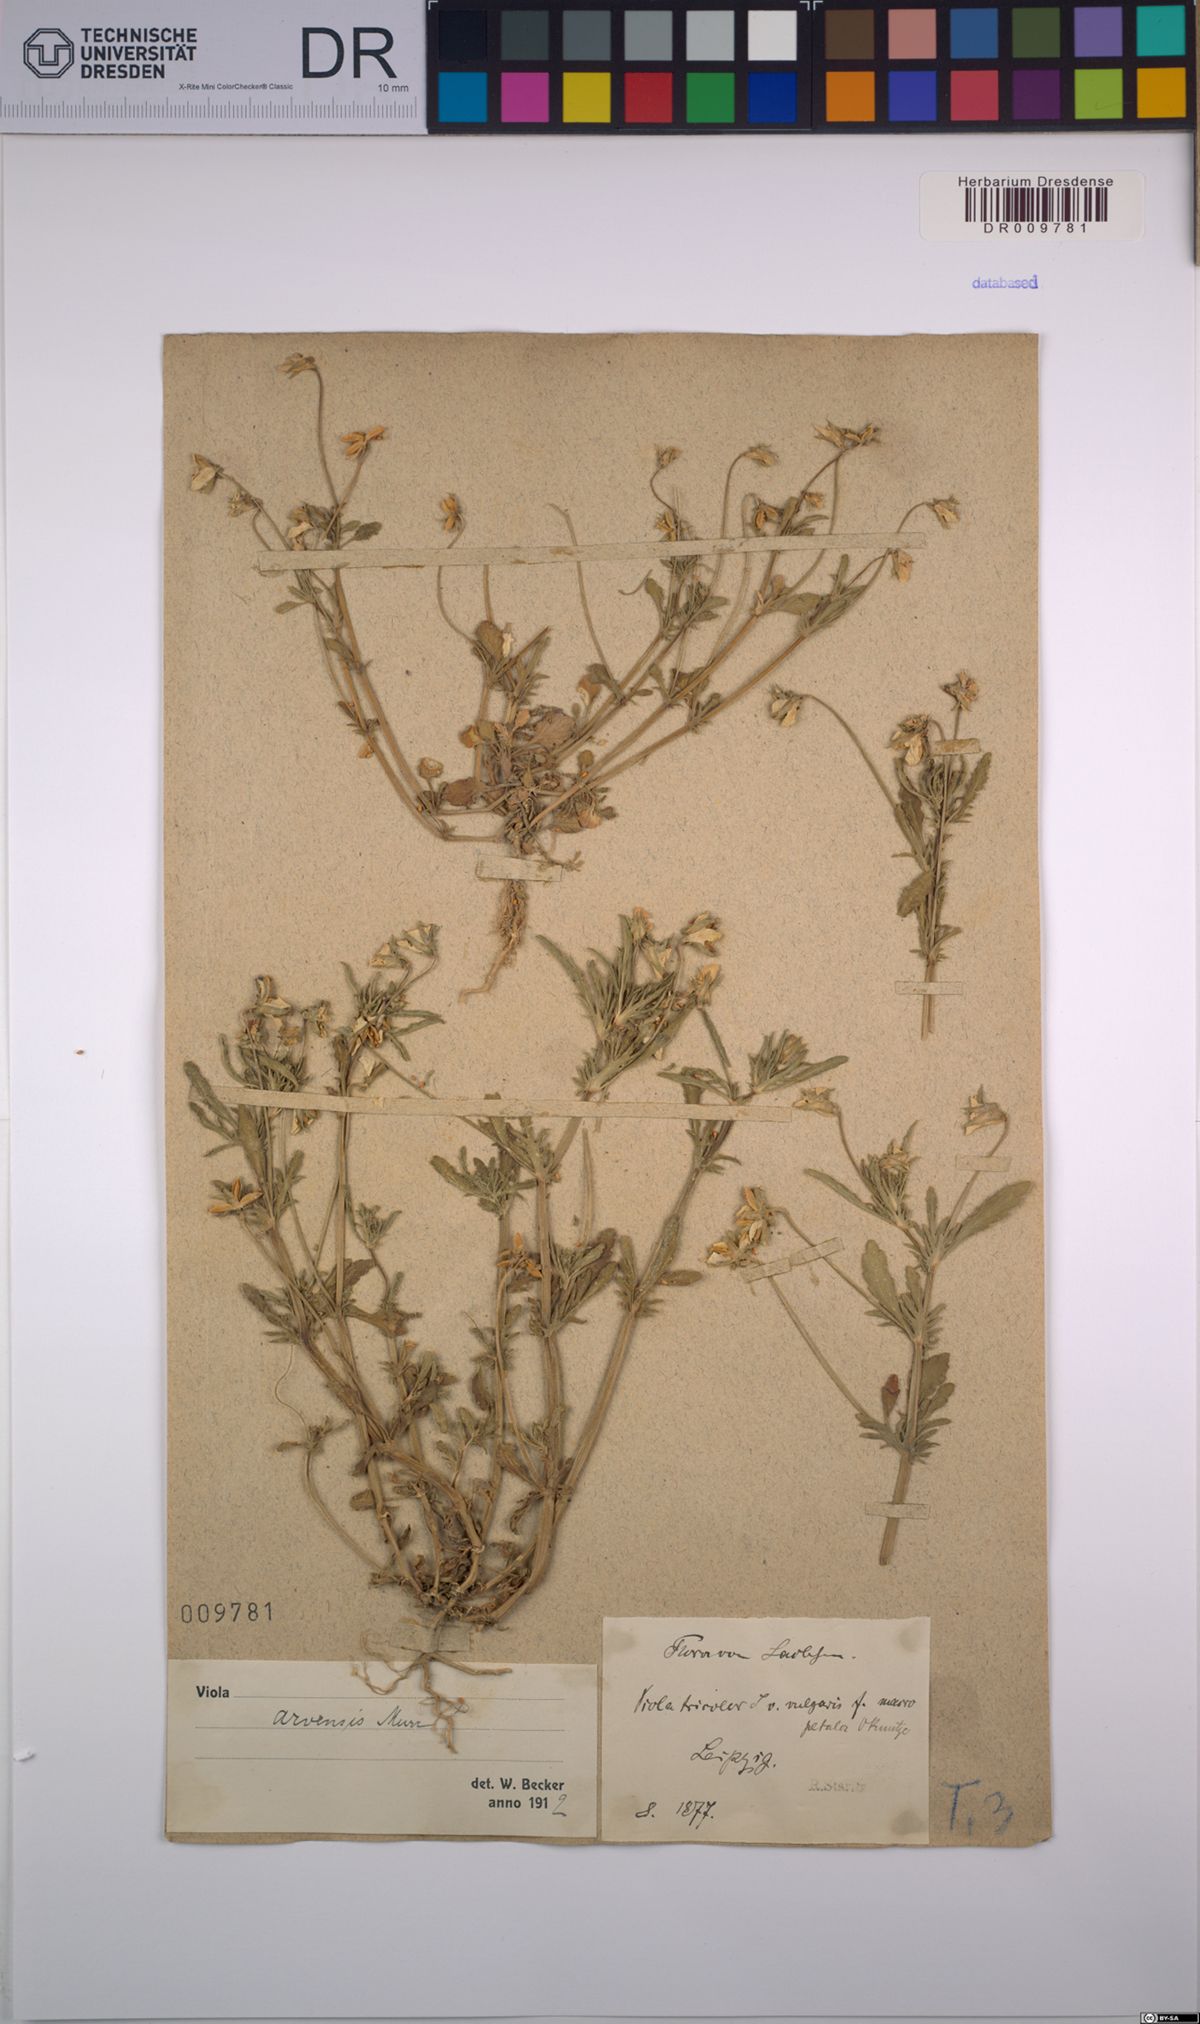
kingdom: Plantae
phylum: Tracheophyta
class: Magnoliopsida
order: Malpighiales
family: Violaceae
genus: Viola
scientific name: Viola arvensis
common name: Field pansy
